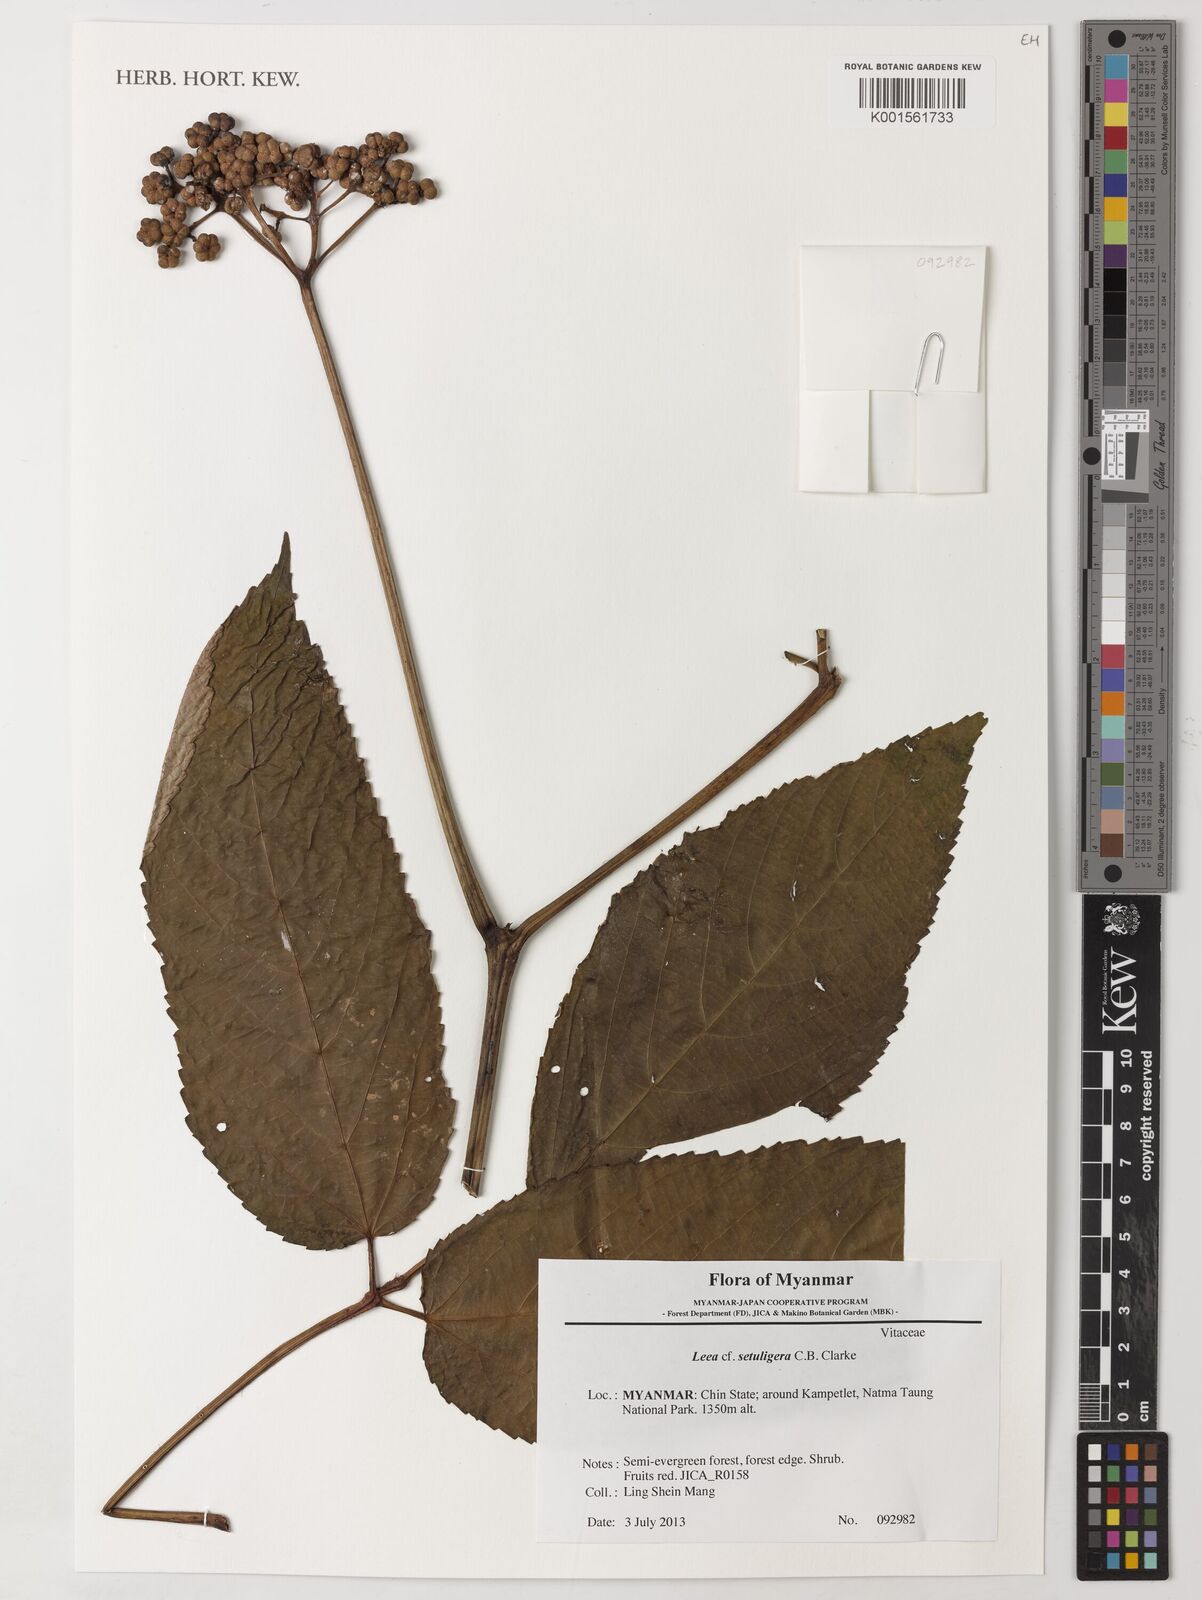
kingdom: Plantae
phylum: Tracheophyta
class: Magnoliopsida
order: Vitales
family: Vitaceae
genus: Leea
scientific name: Leea setuligera
